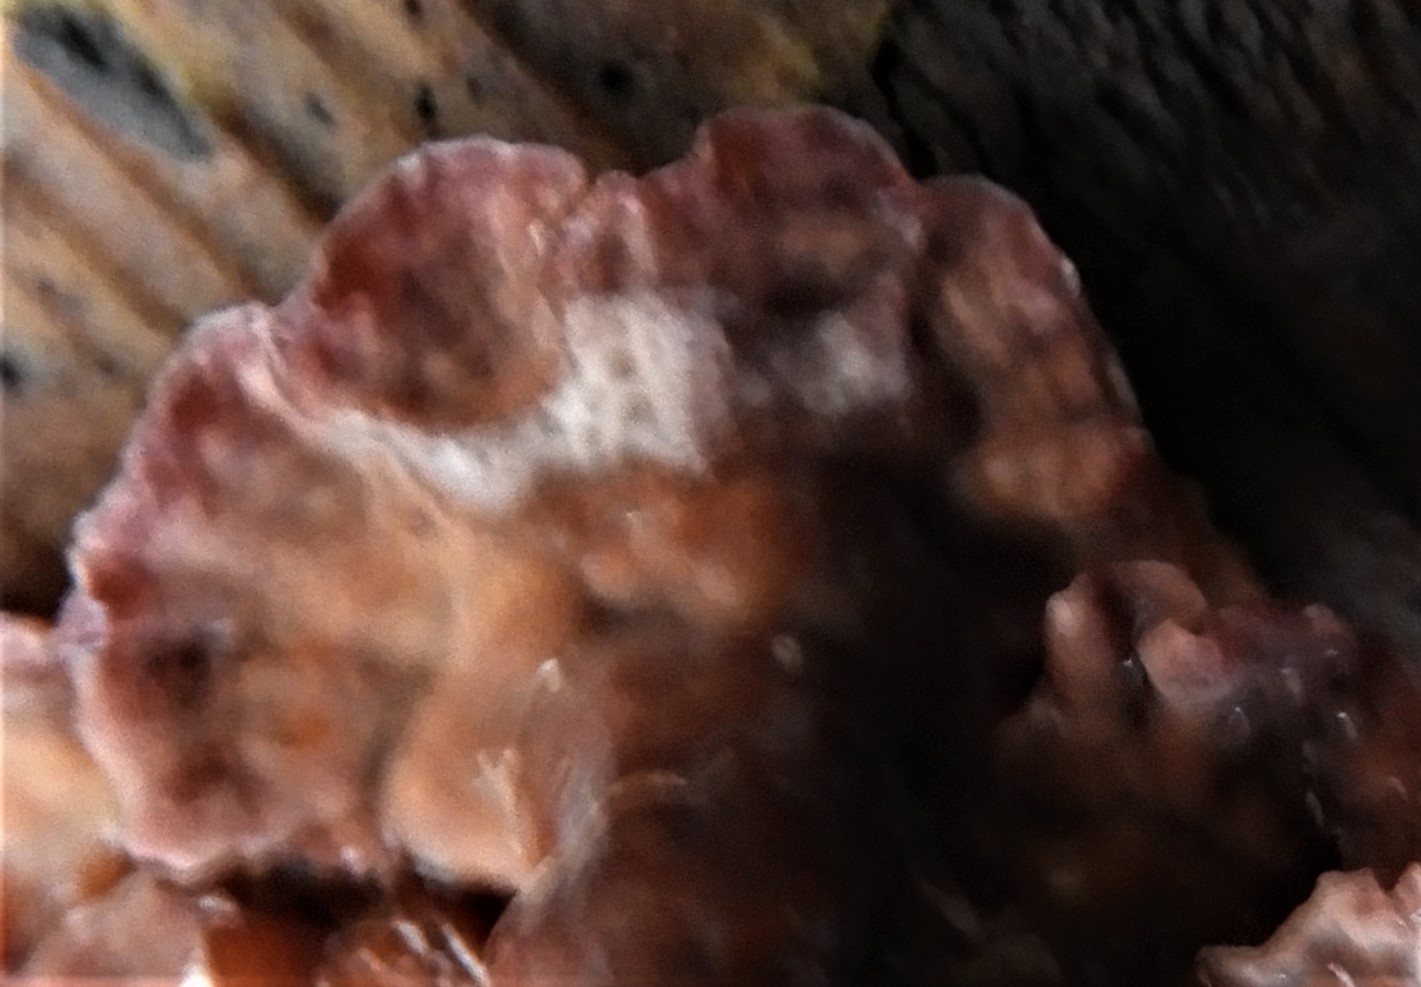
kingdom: Fungi
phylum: Basidiomycota
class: Agaricomycetes
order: Agaricales
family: Cyphellaceae
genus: Chondrostereum
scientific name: Chondrostereum purpureum
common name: purpurlædersvamp
